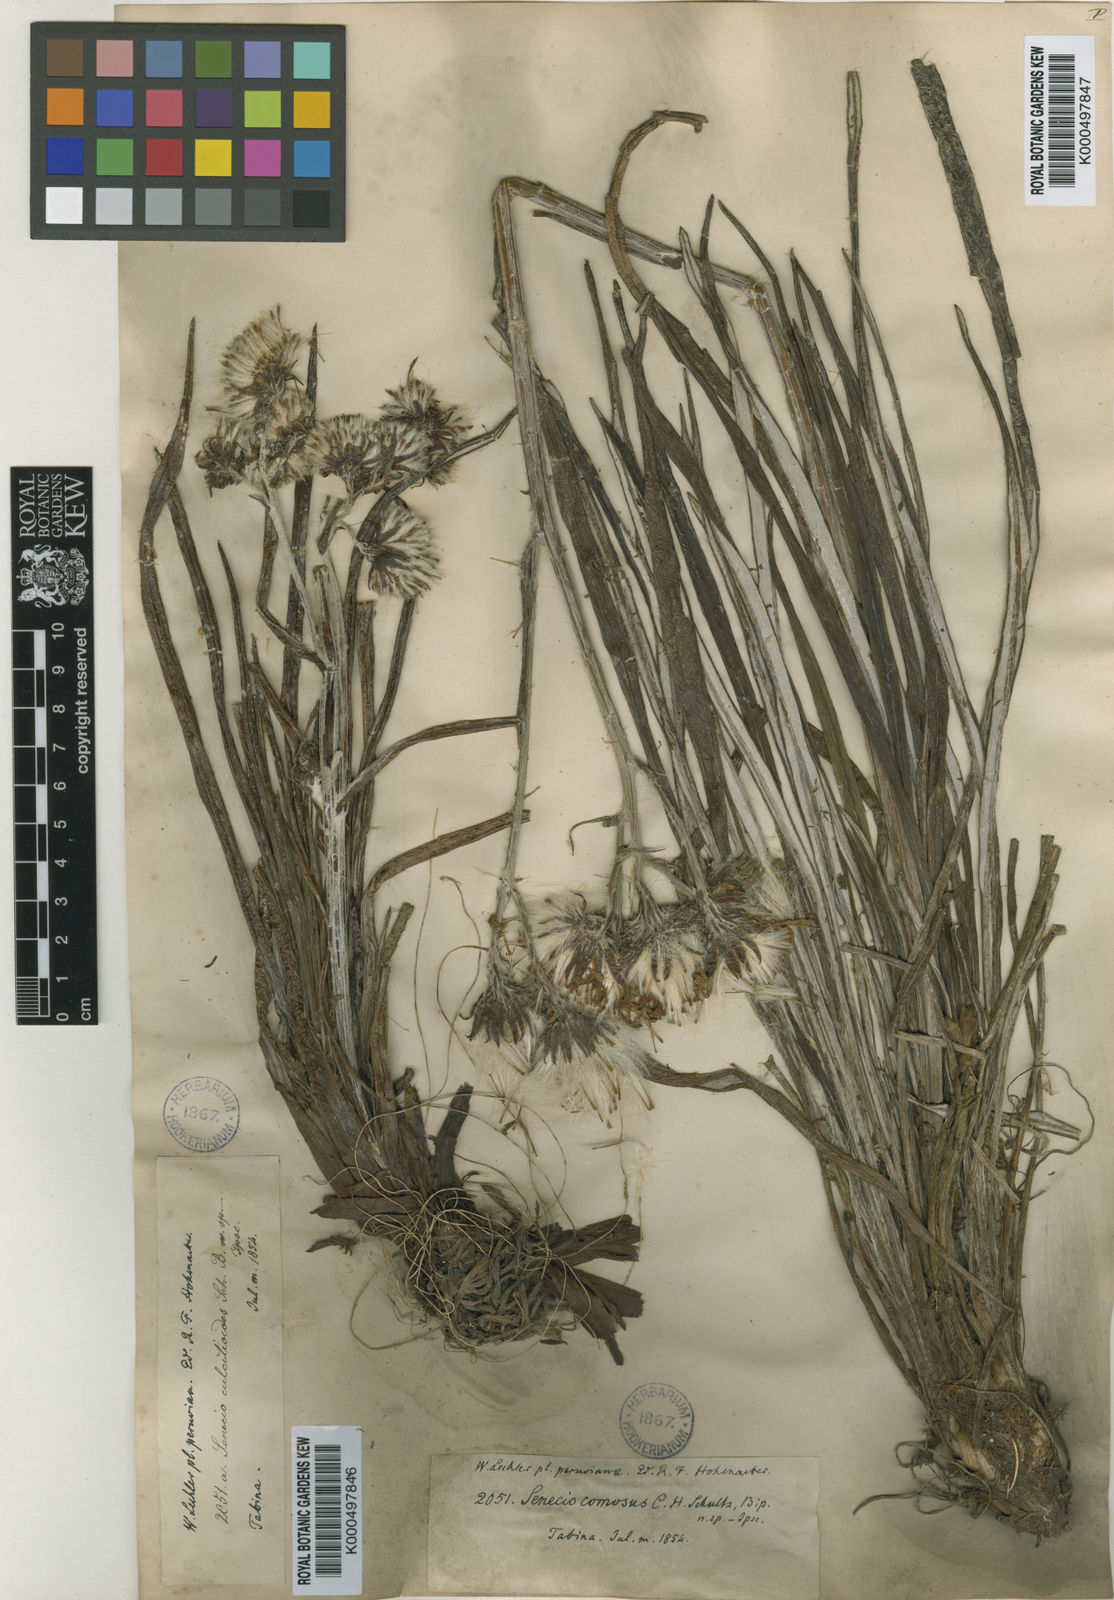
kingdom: Plantae
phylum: Tracheophyta
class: Magnoliopsida
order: Asterales
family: Asteraceae
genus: Senecio
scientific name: Senecio comosus
